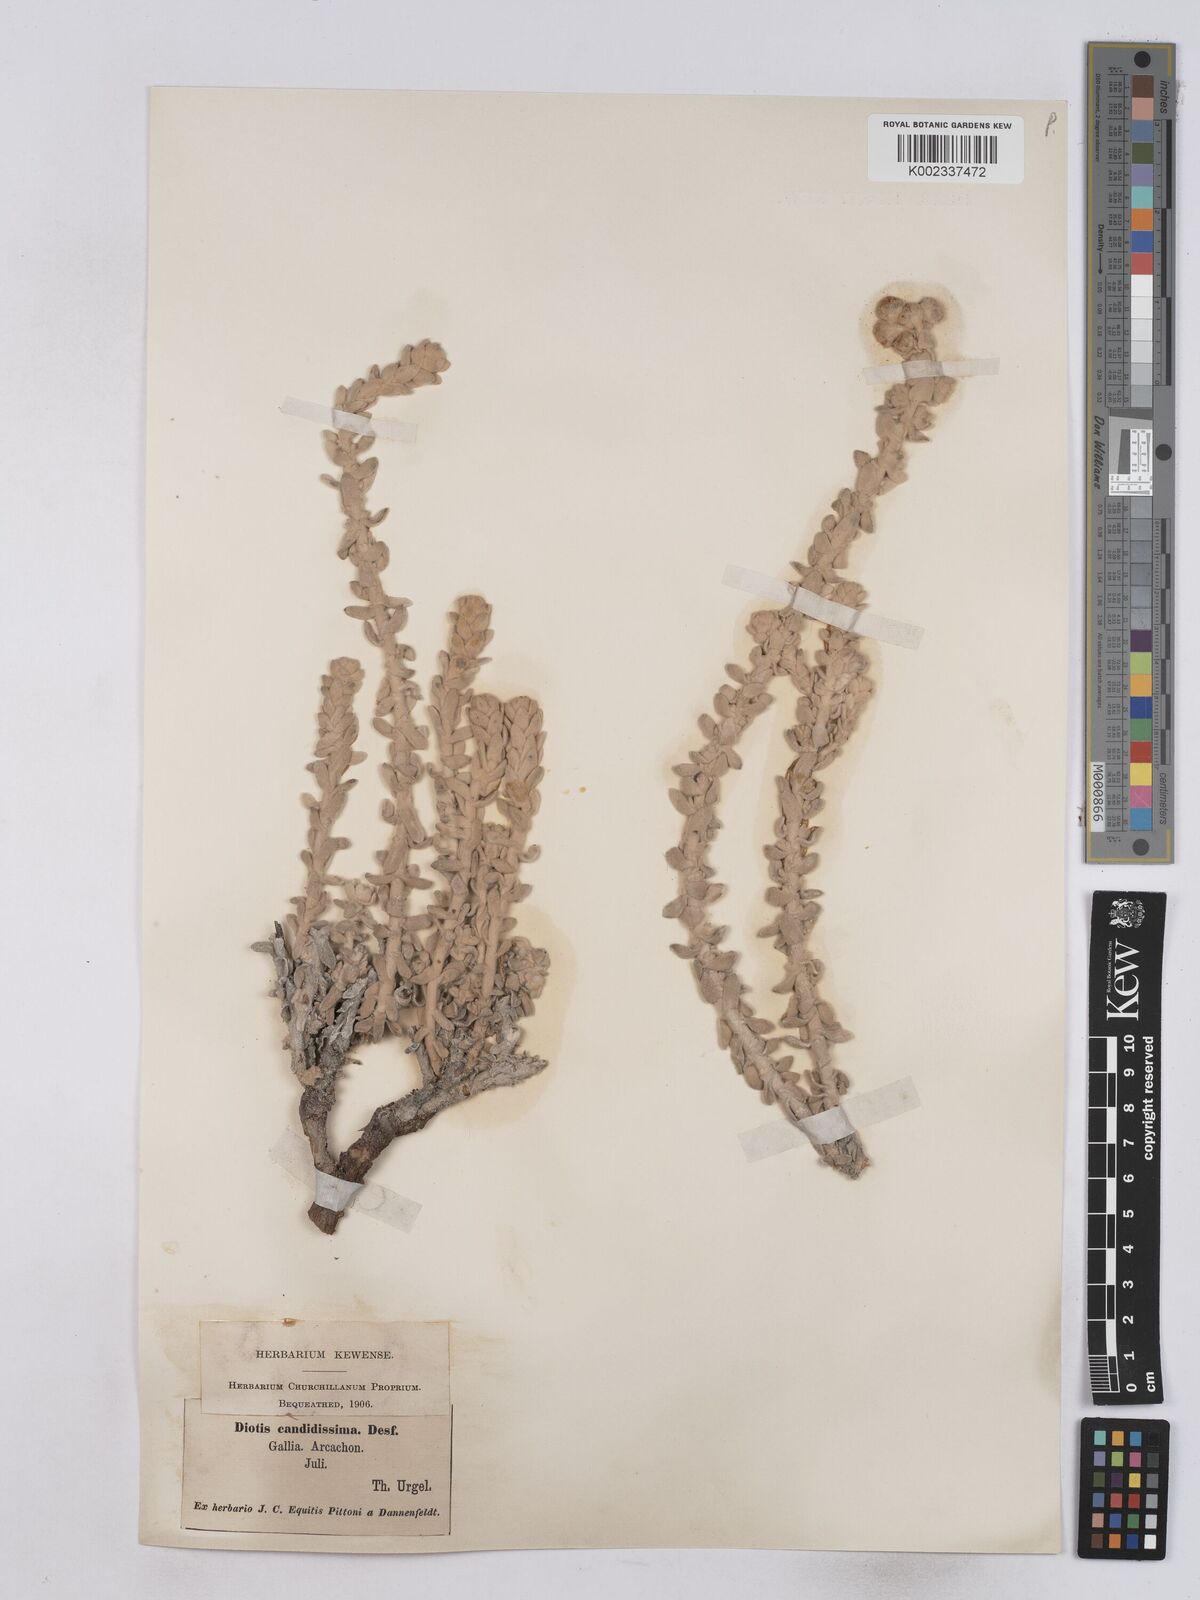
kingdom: Plantae
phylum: Tracheophyta
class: Magnoliopsida
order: Asterales
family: Asteraceae
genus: Achillea
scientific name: Achillea maritima
